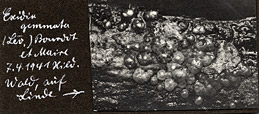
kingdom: Plantae
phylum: Tracheophyta
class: Magnoliopsida
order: Malvales
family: Malvaceae
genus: Tilia
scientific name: Tilia
